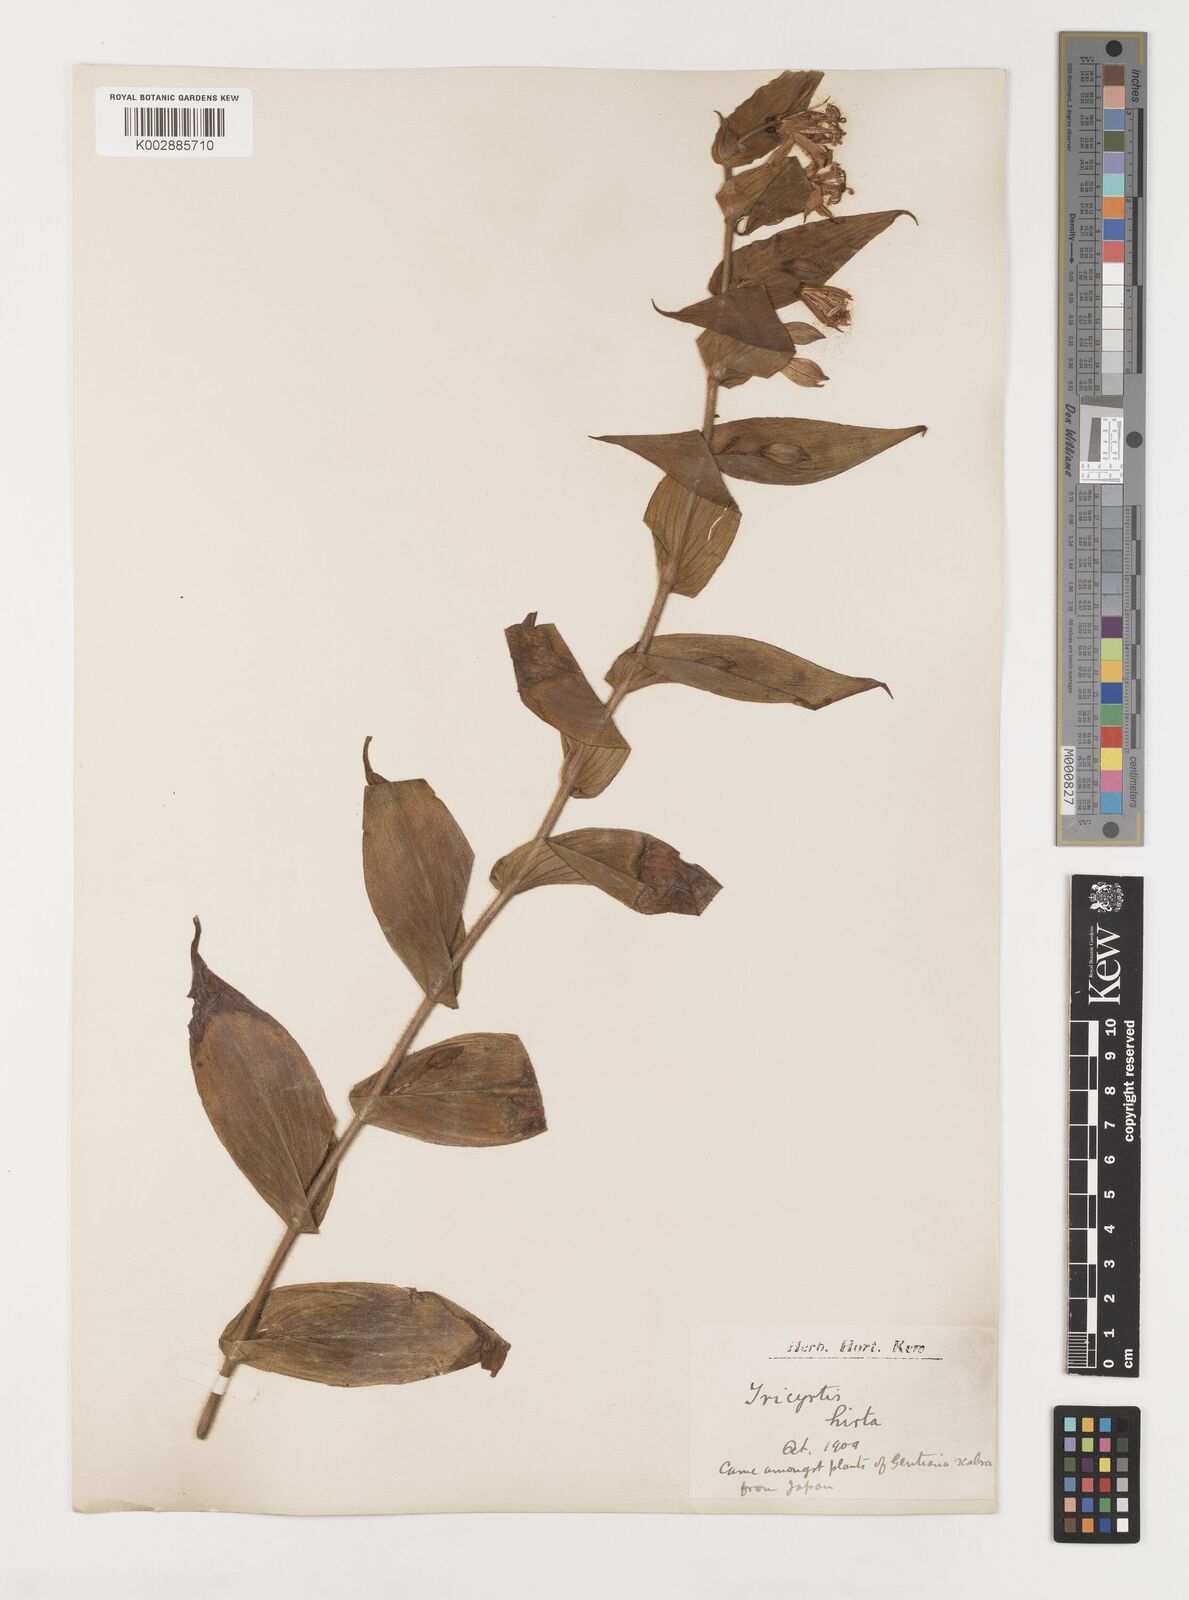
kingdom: Plantae
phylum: Tracheophyta
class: Liliopsida
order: Liliales
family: Liliaceae
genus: Tricyrtis
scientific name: Tricyrtis hirta
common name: Toadlily
